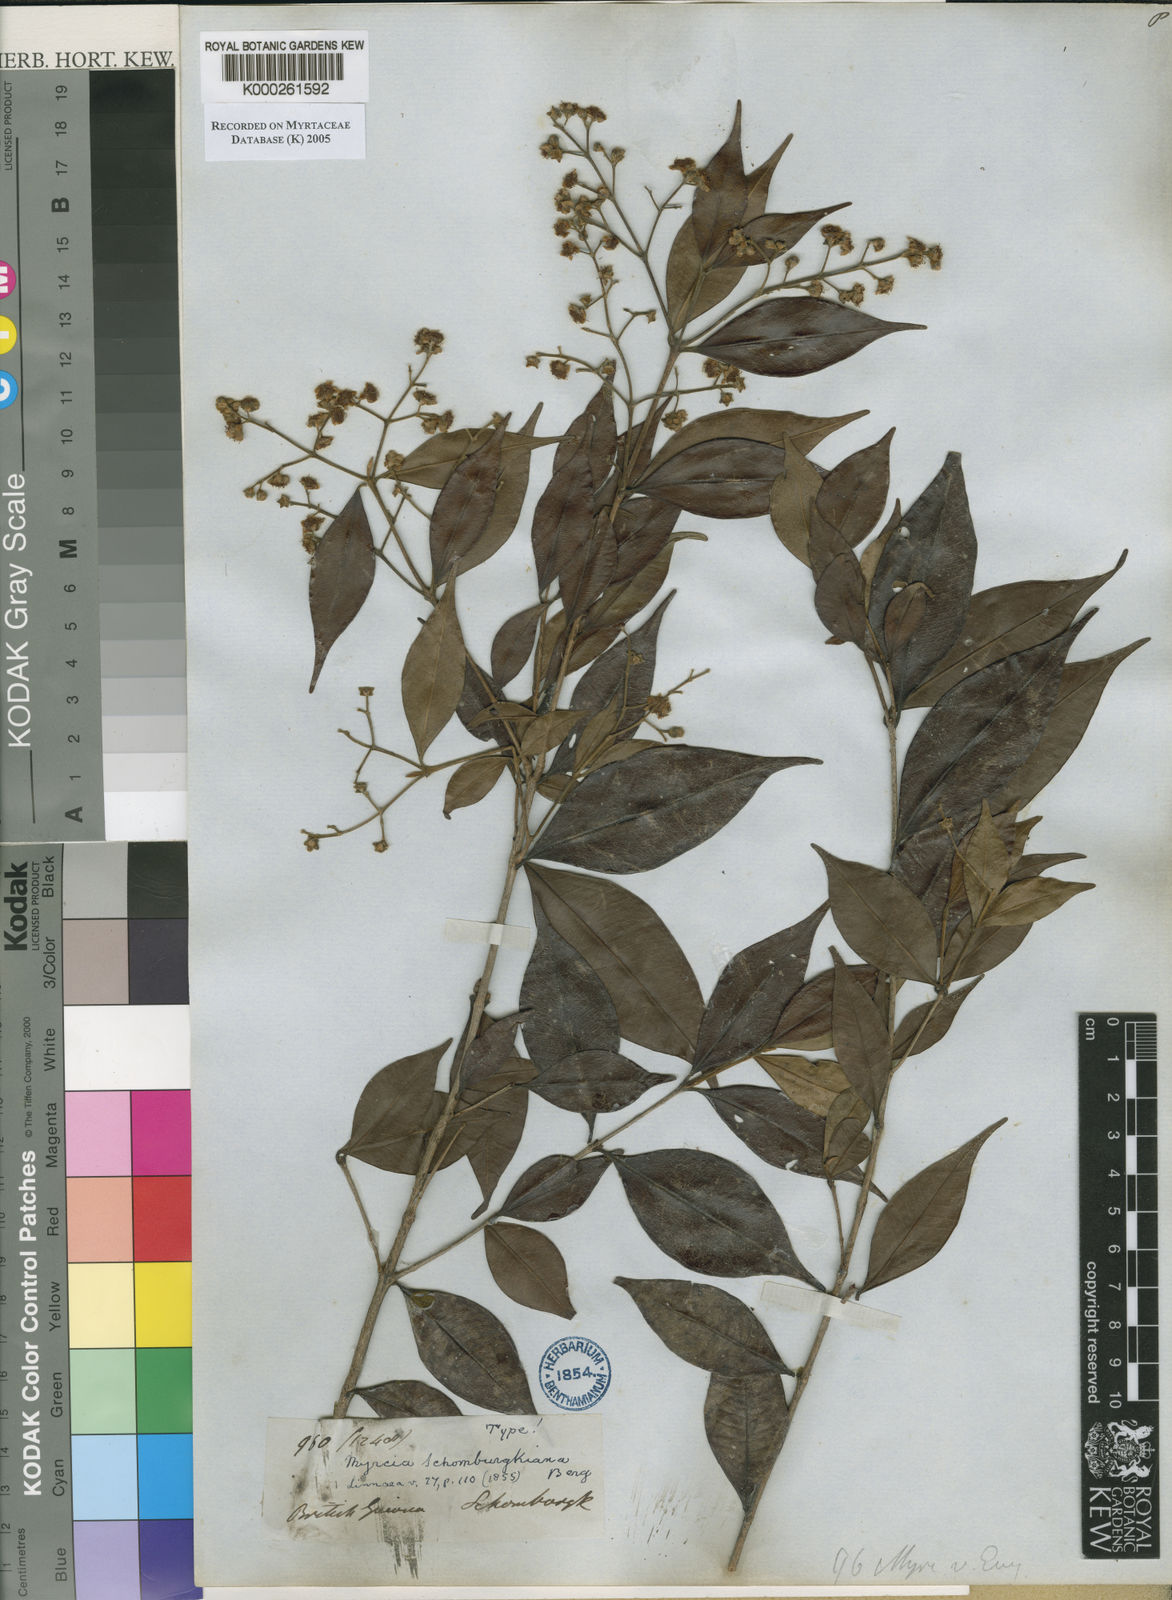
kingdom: Plantae
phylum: Tracheophyta
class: Magnoliopsida
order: Myrtales
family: Myrtaceae
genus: Myrcia
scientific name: Myrcia servata
